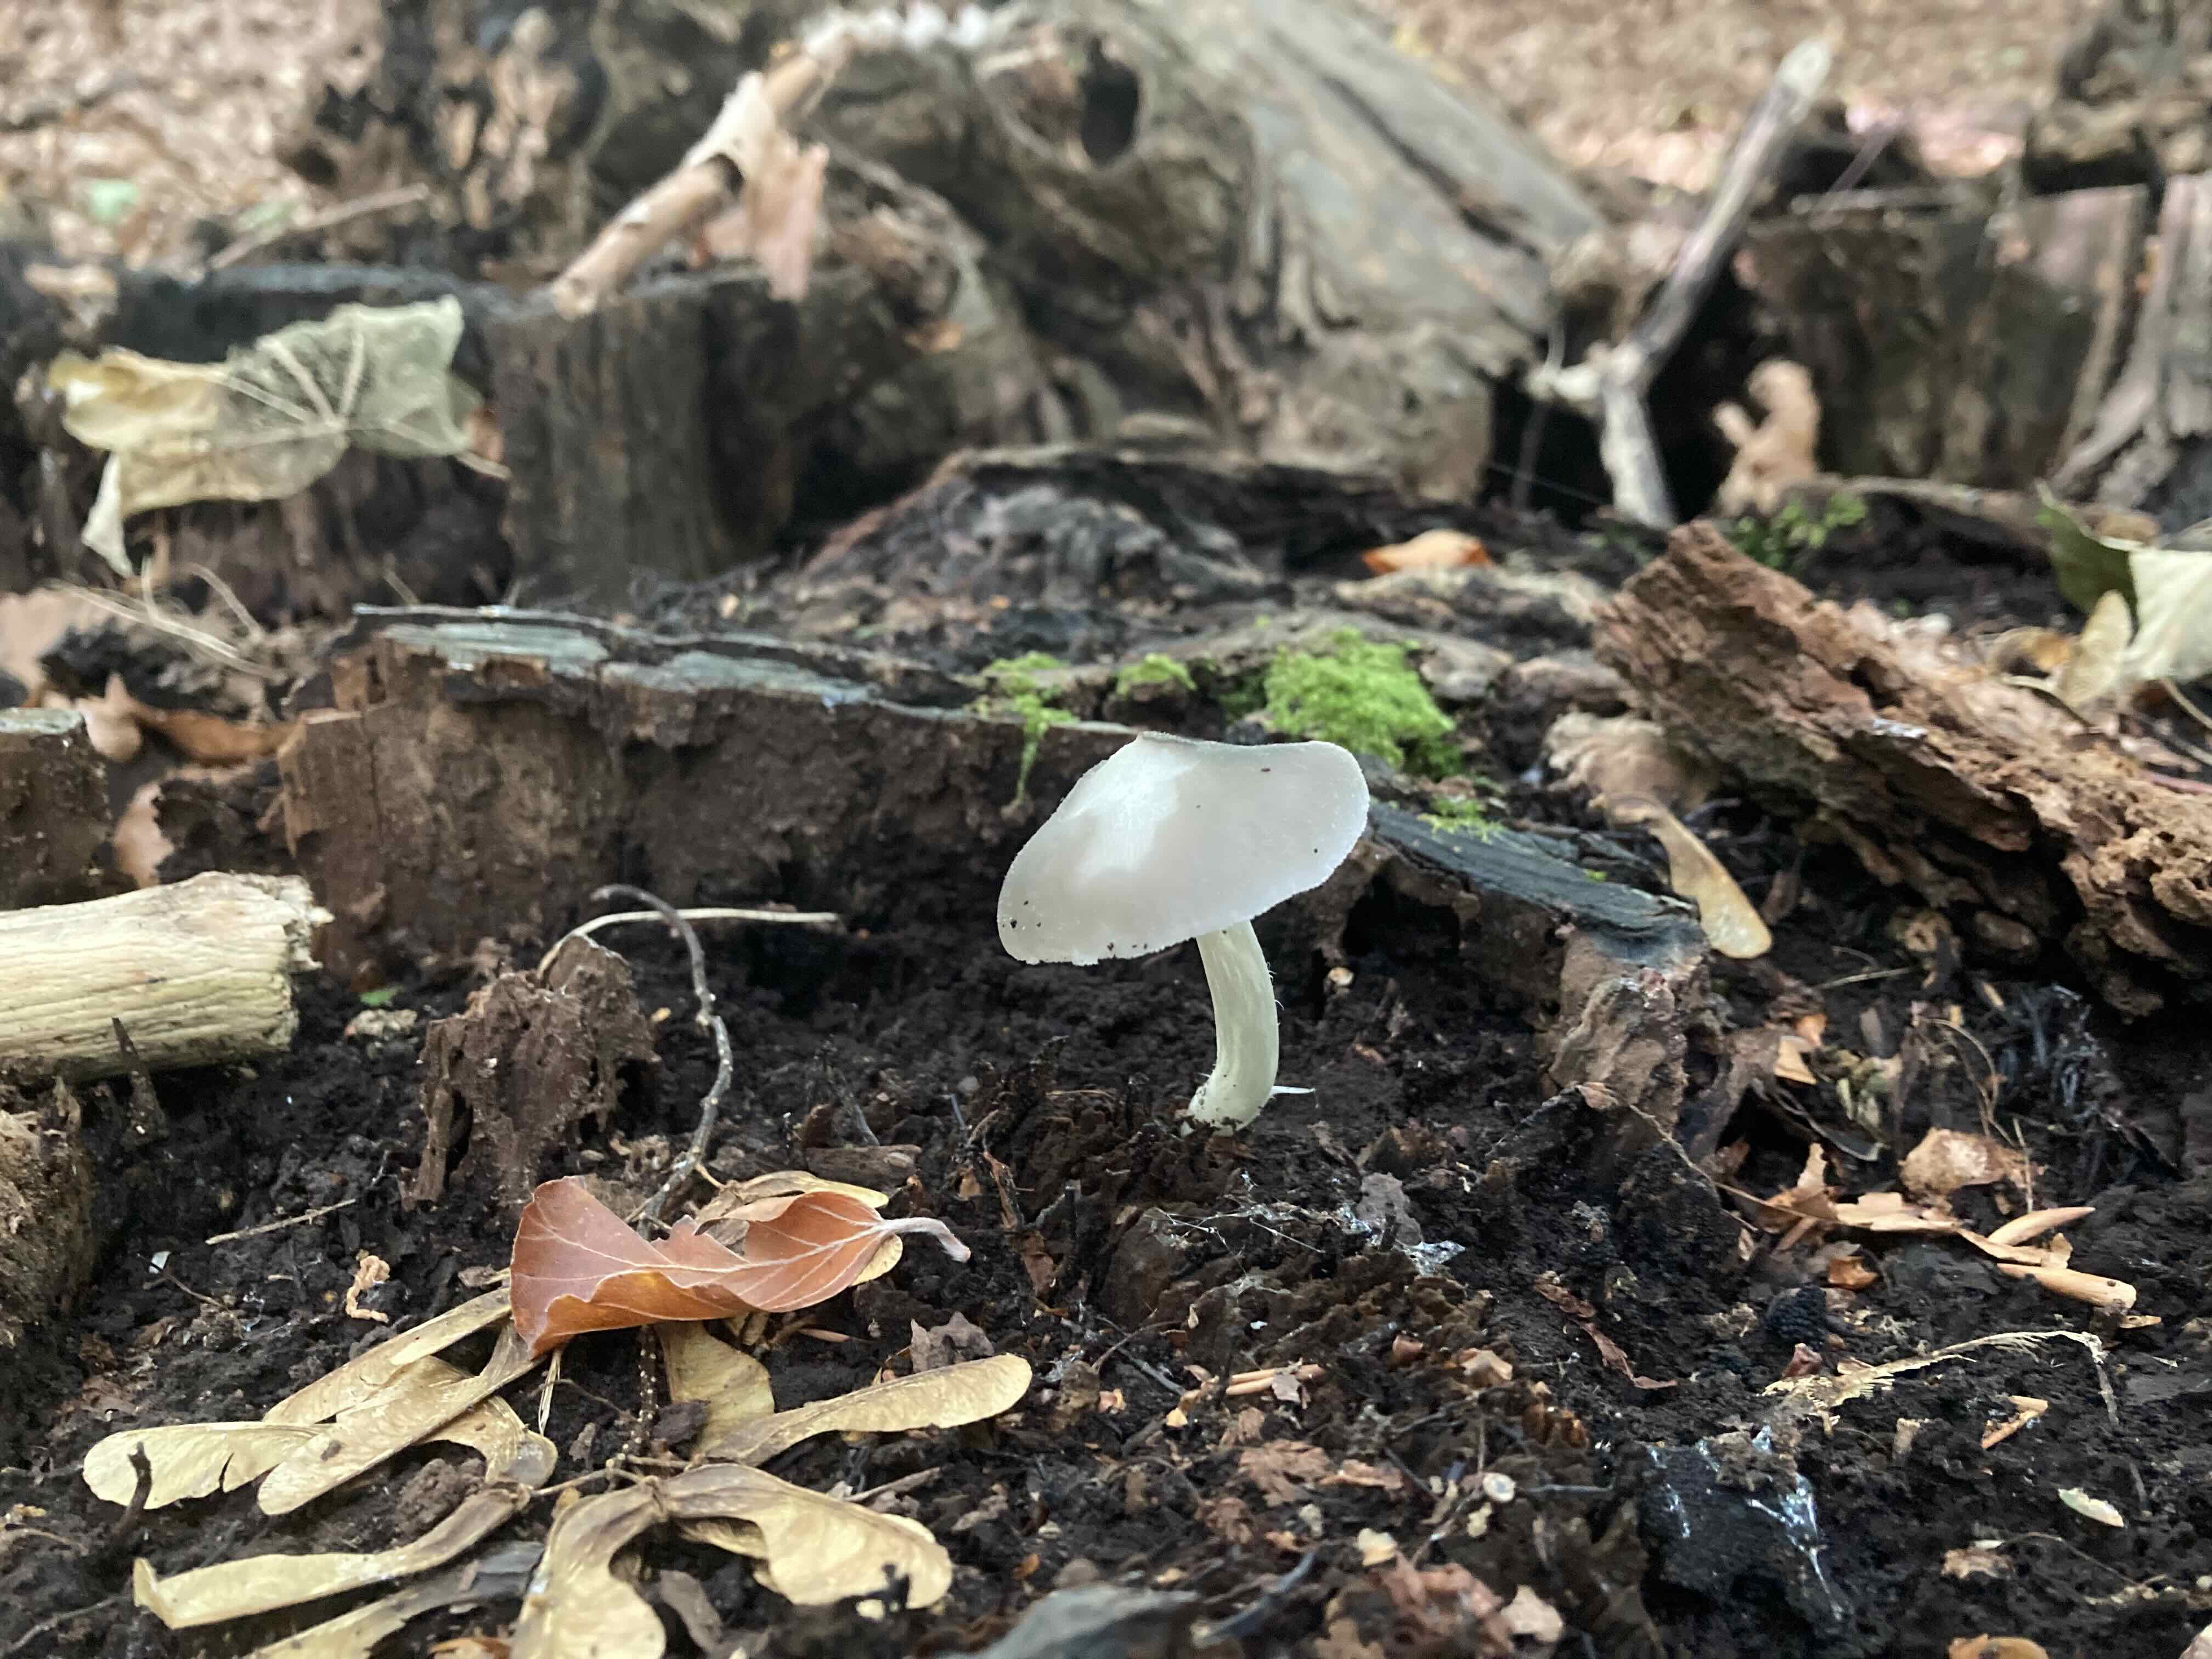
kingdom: Fungi
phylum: Basidiomycota
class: Agaricomycetes
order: Agaricales
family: Pluteaceae
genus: Pluteus
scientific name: Pluteus salicinus
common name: stiv skærmhat
